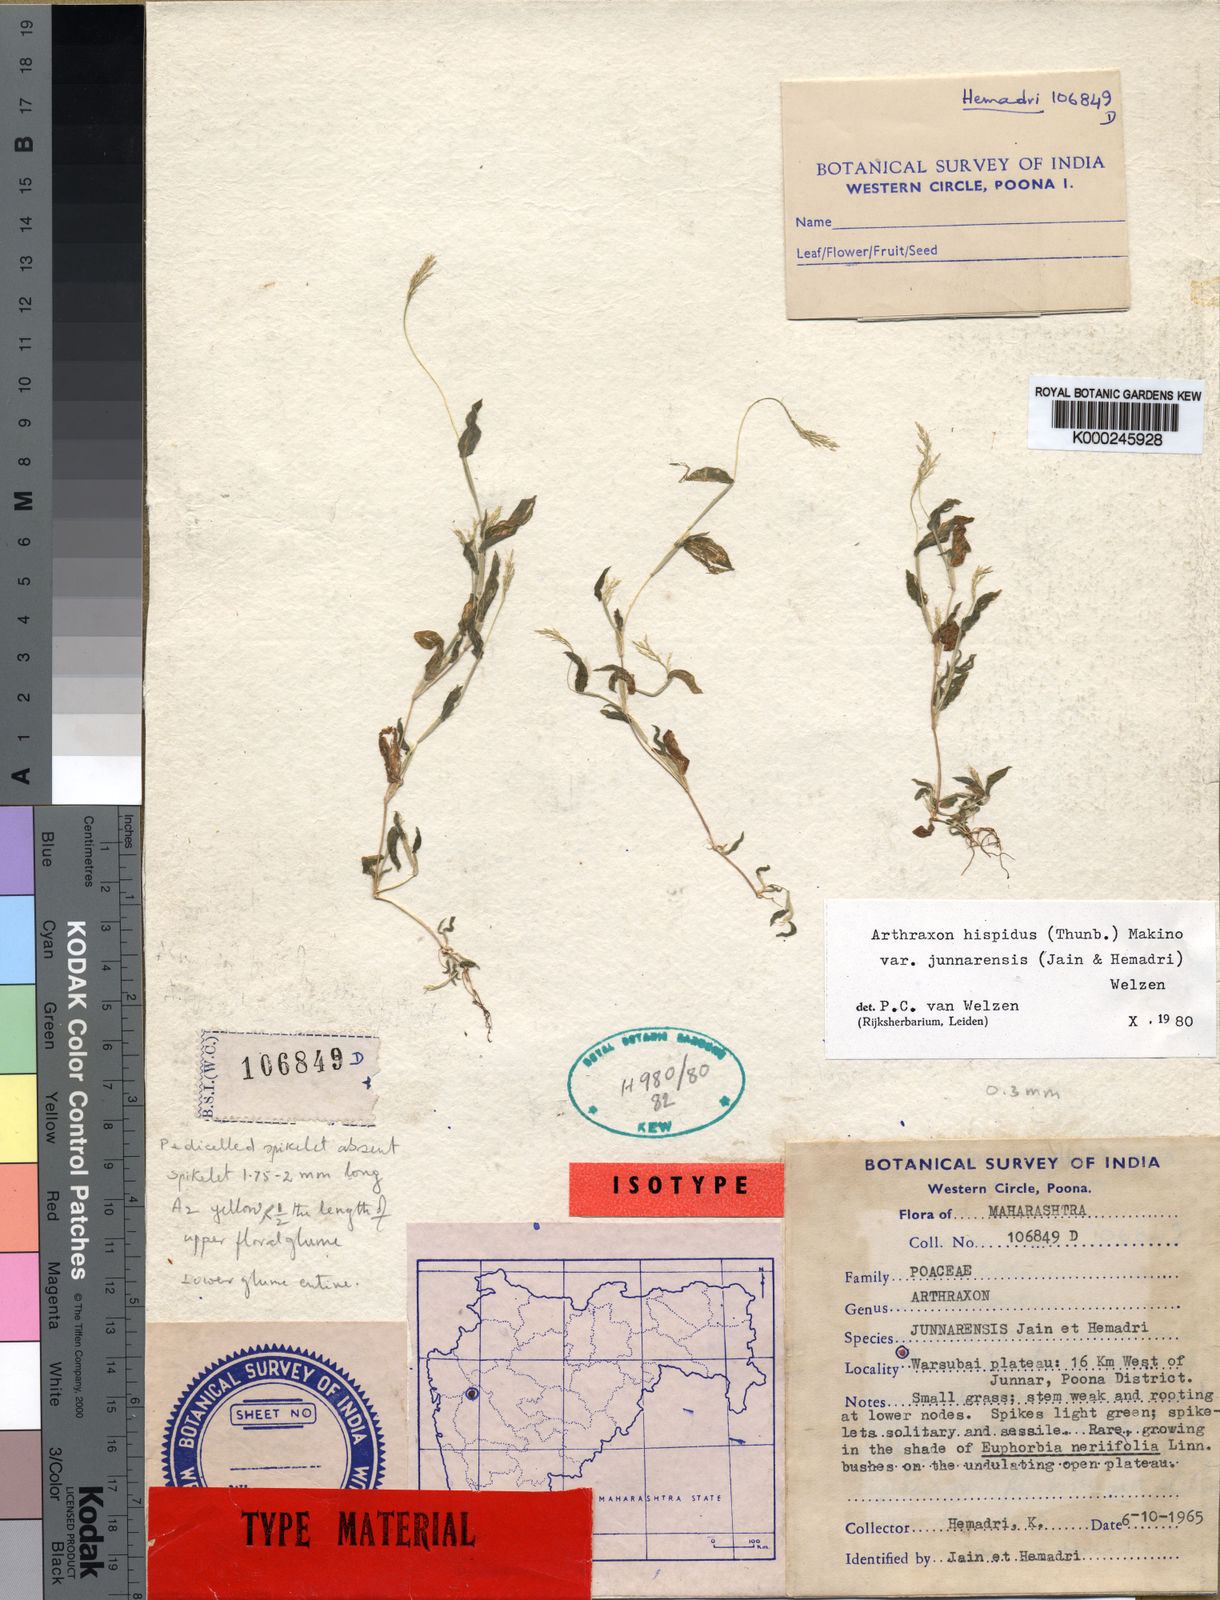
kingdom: Plantae
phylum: Tracheophyta
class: Liliopsida
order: Poales
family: Poaceae
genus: Arthraxon
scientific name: Arthraxon junnarensis
